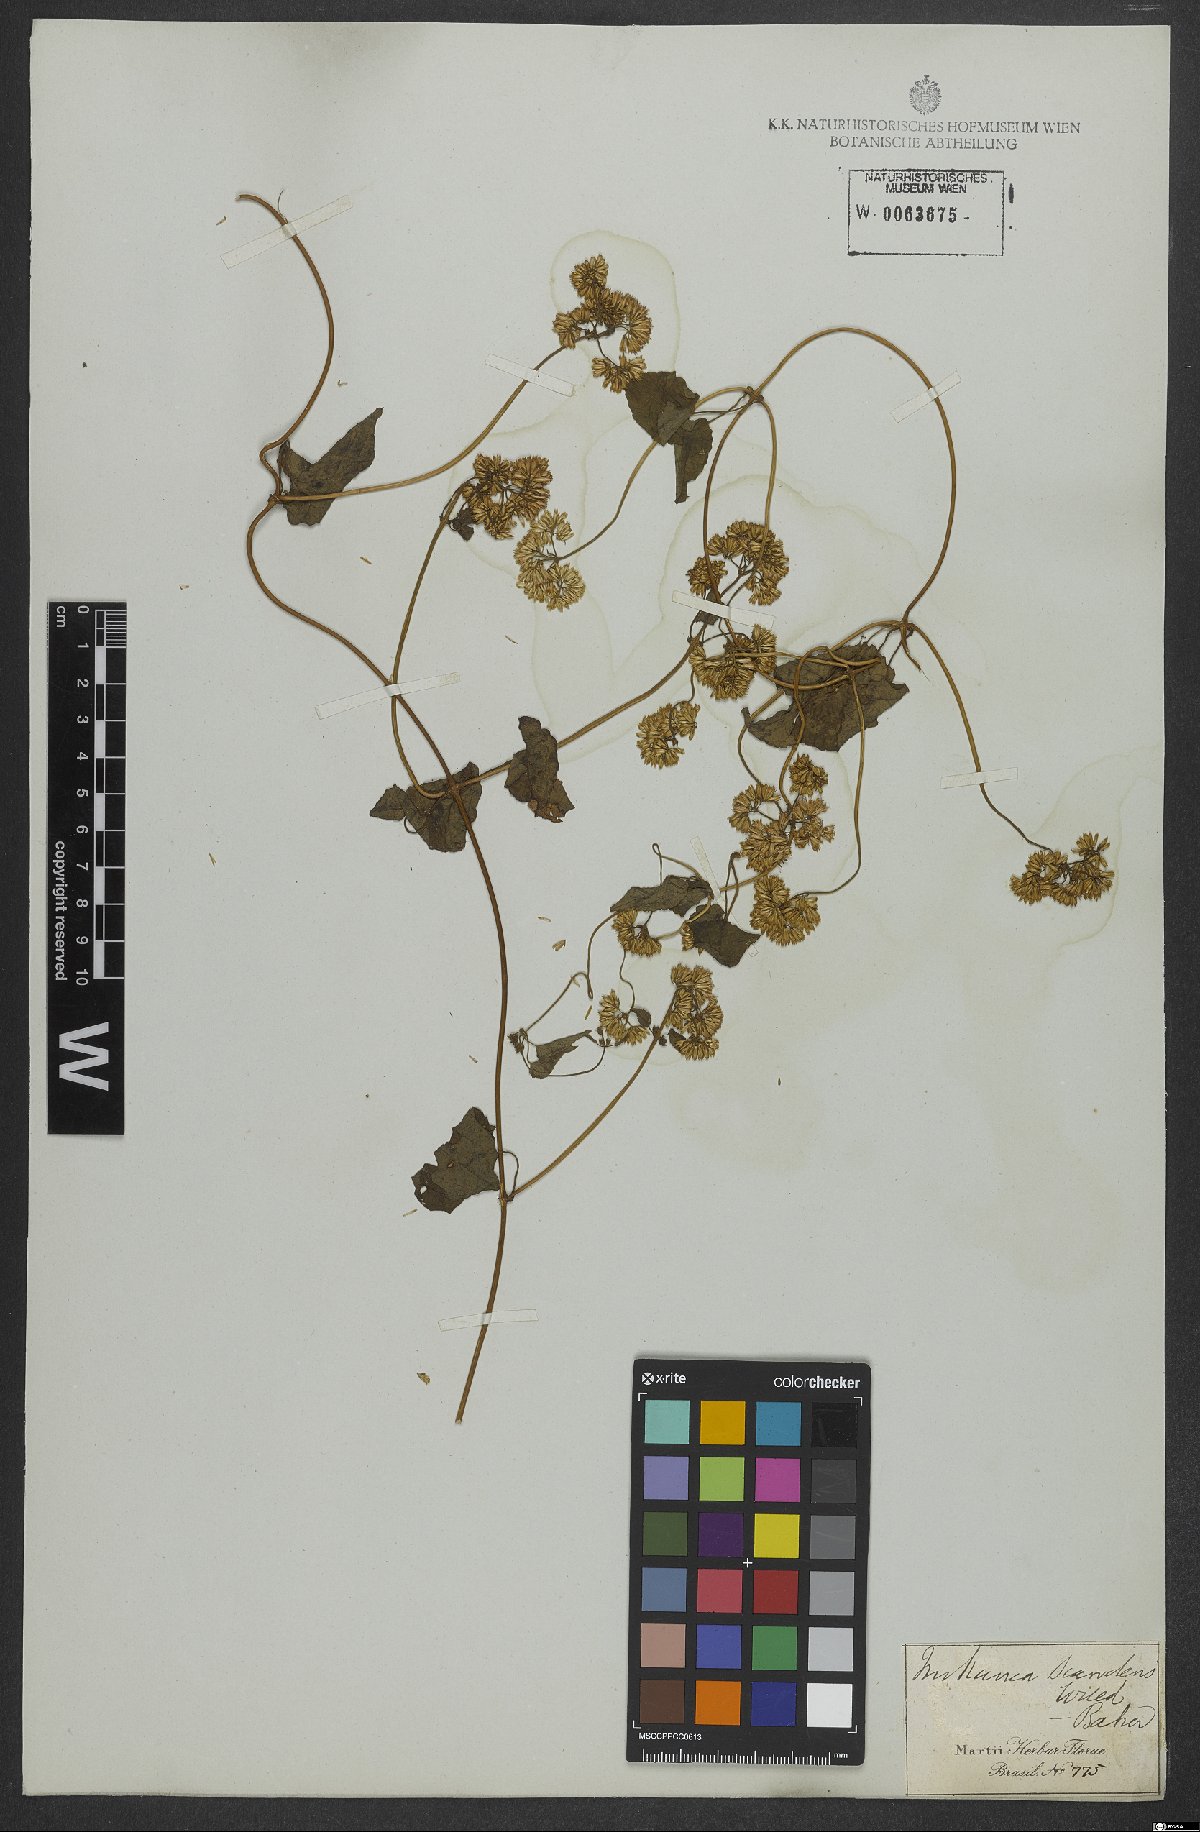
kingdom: Plantae
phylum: Tracheophyta
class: Magnoliopsida
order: Asterales
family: Asteraceae
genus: Mikania
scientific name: Mikania scandens
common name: Climbing hempvine
